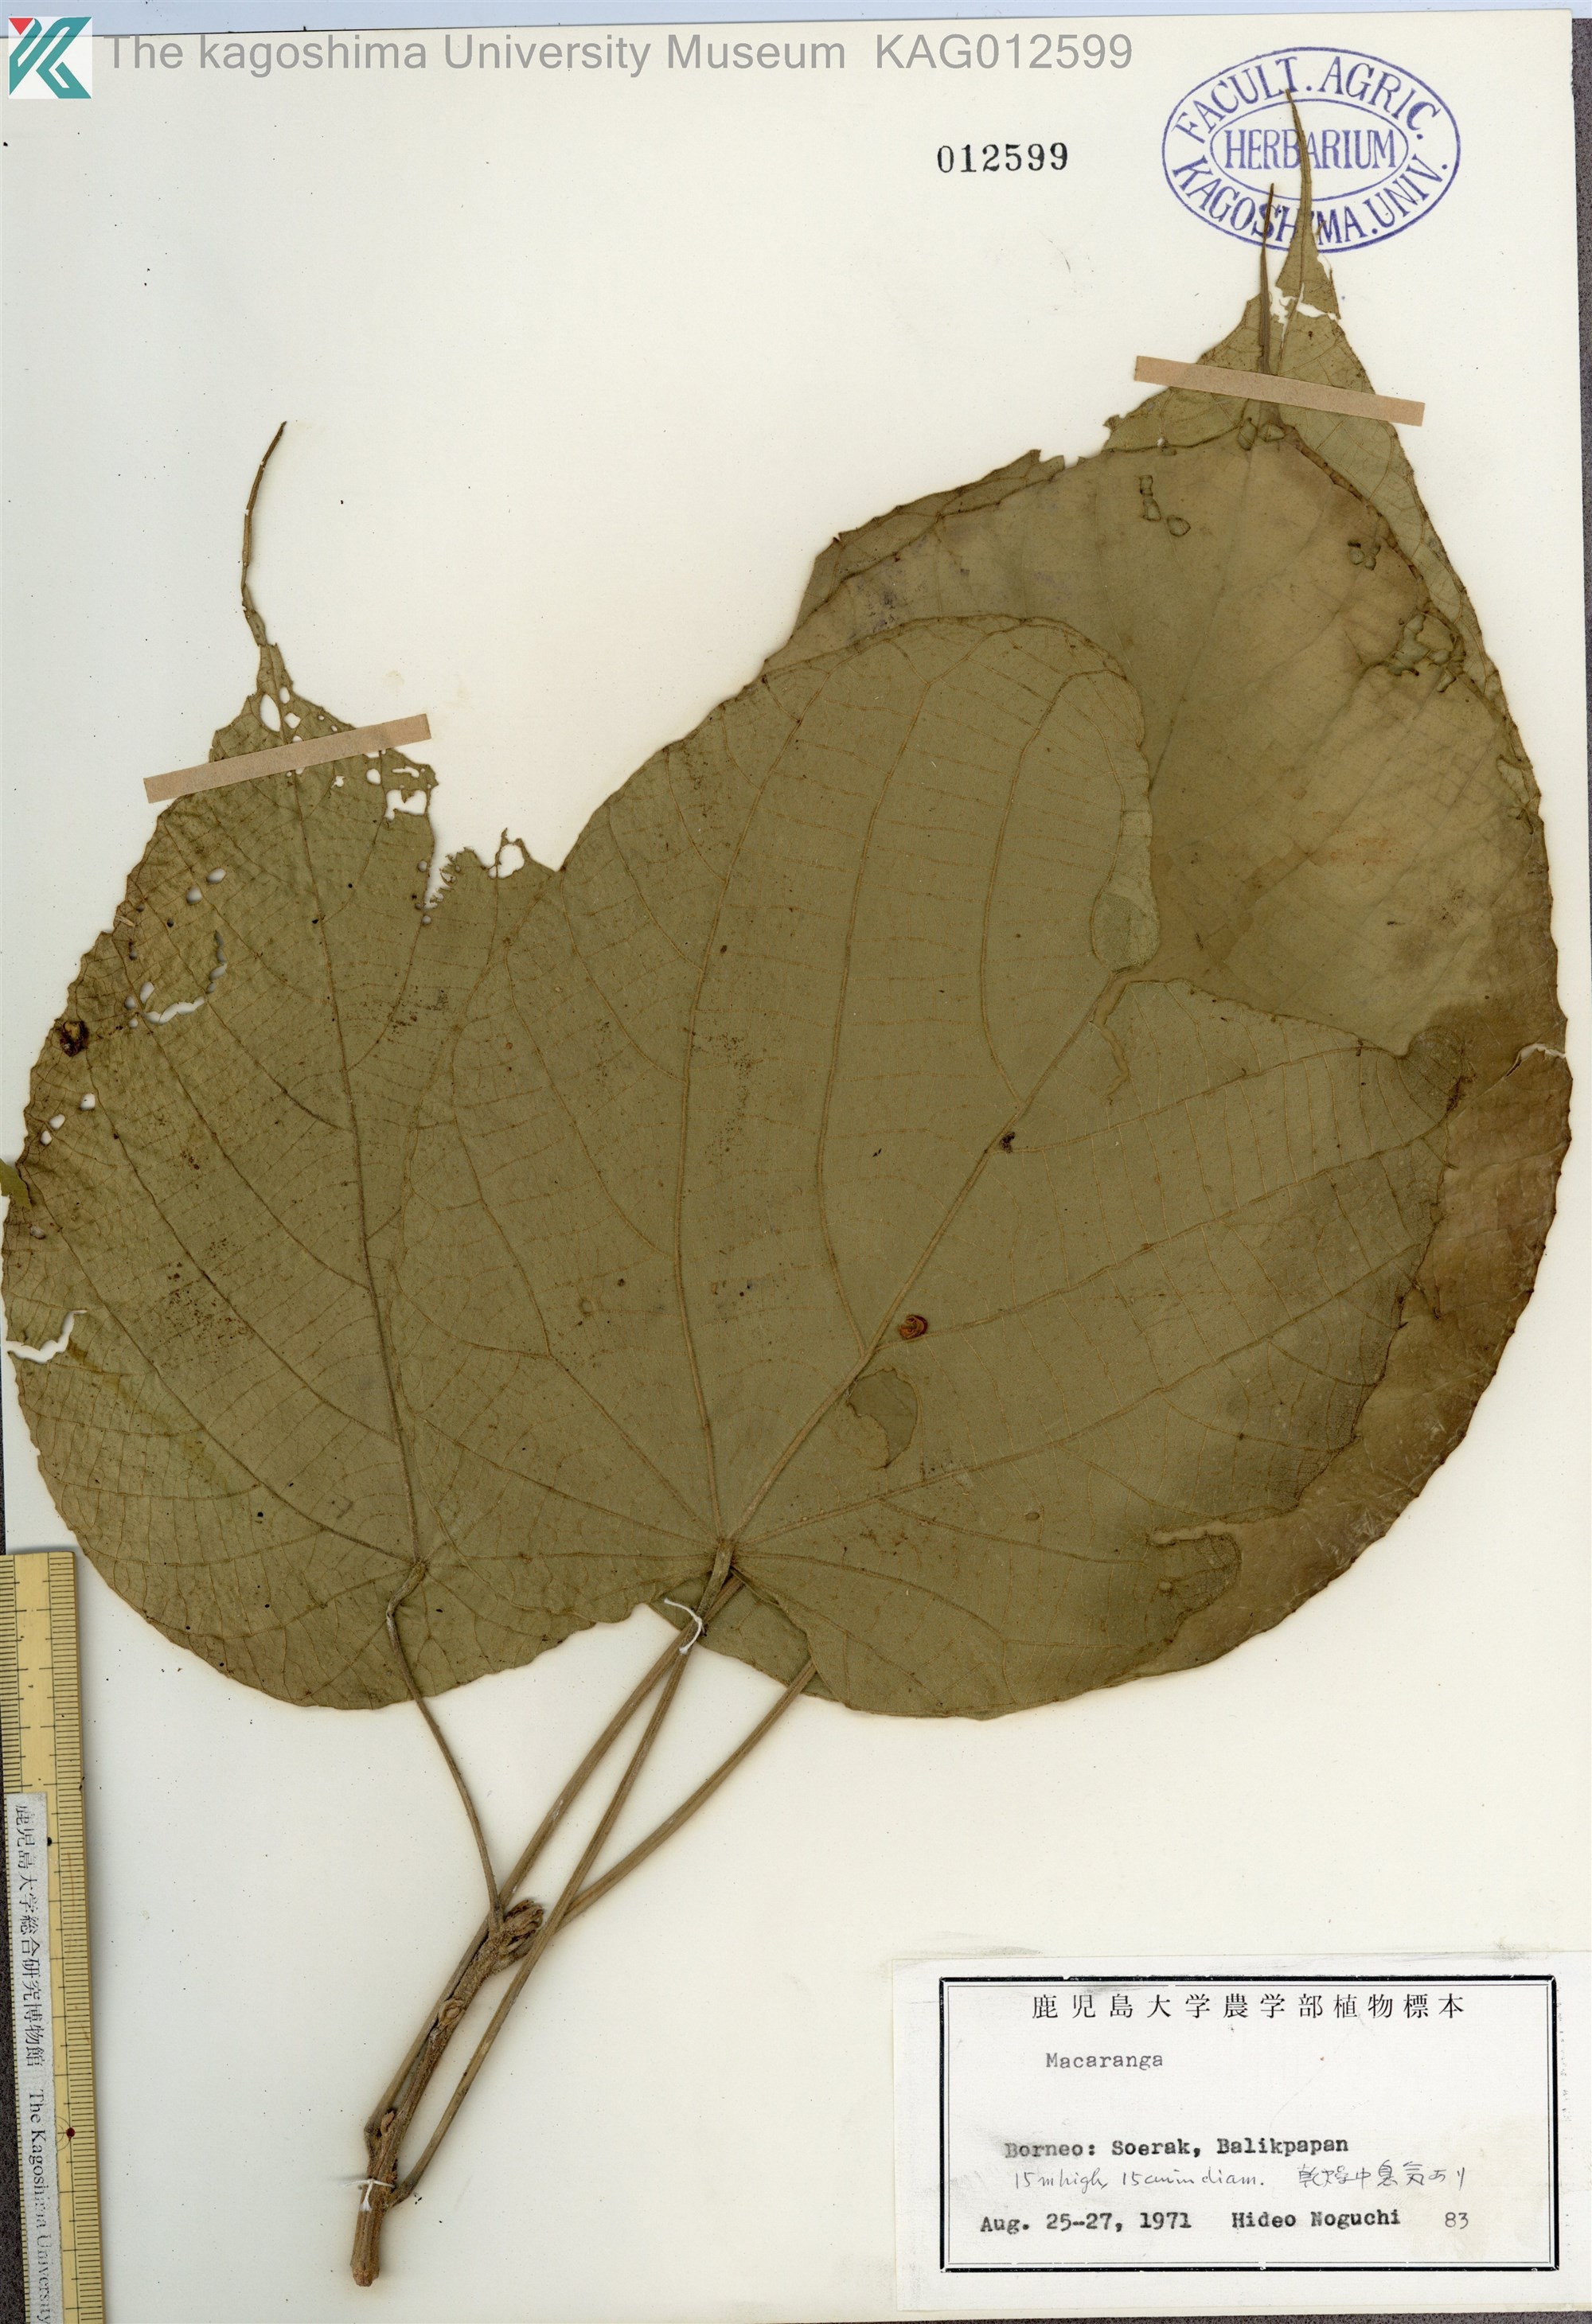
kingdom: Plantae
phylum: Tracheophyta
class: Magnoliopsida
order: Malpighiales
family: Euphorbiaceae
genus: Macaranga
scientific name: Macaranga tanarius
